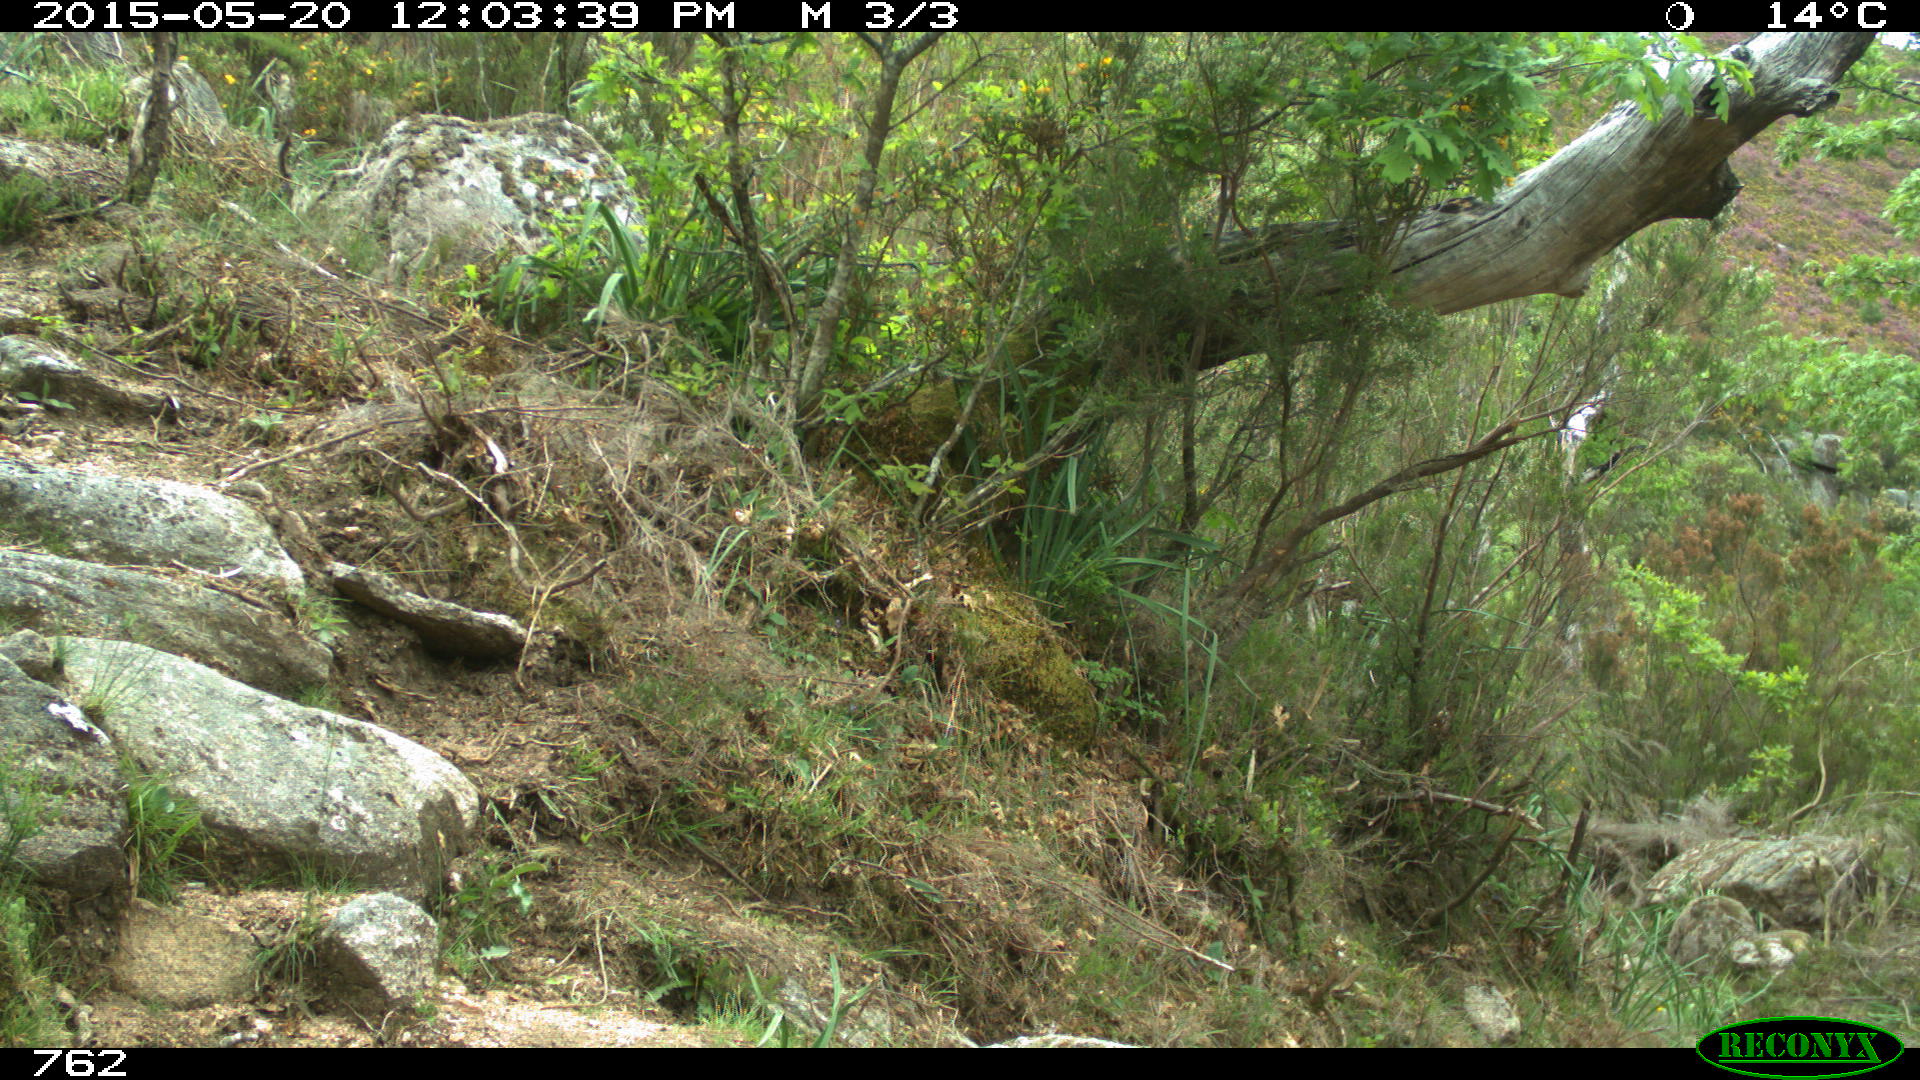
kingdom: Animalia
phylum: Chordata
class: Mammalia
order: Artiodactyla
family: Bovidae
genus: Bos
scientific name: Bos taurus
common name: Domesticated cattle
